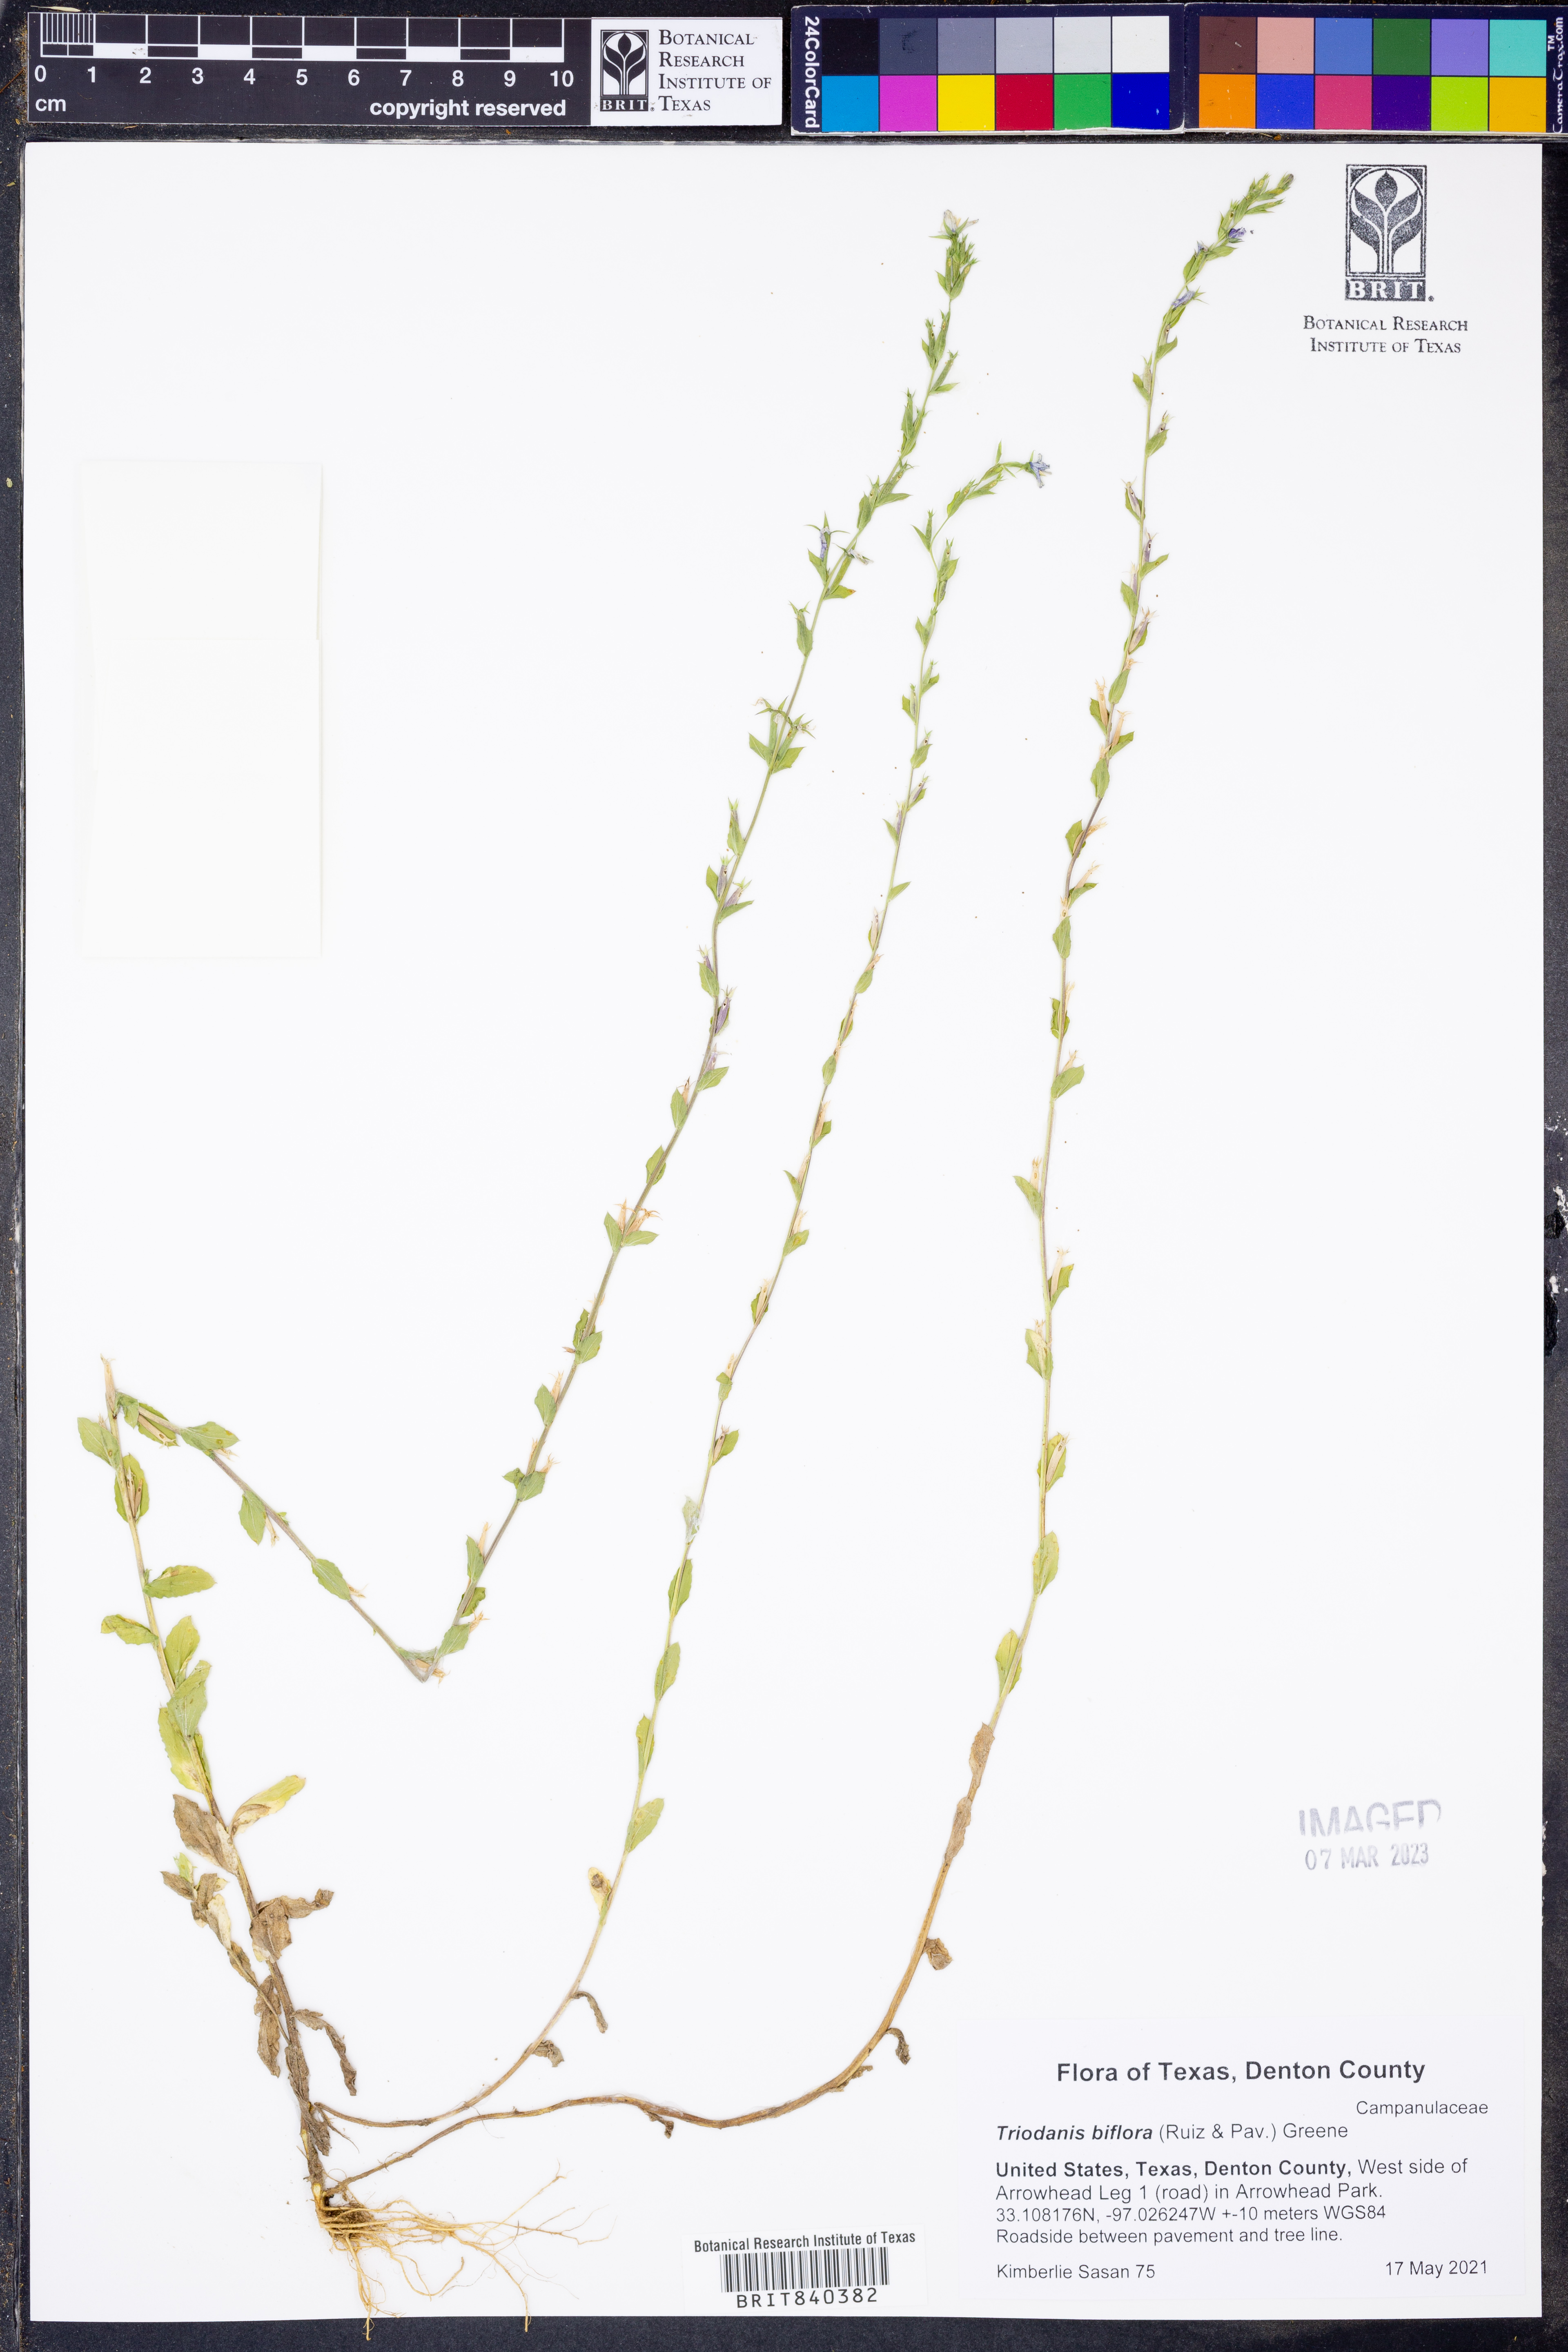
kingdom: Plantae
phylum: Tracheophyta
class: Magnoliopsida
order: Asterales
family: Campanulaceae
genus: Triodanis
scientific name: Triodanis perfoliata
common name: Clasping venus' looking-glass
